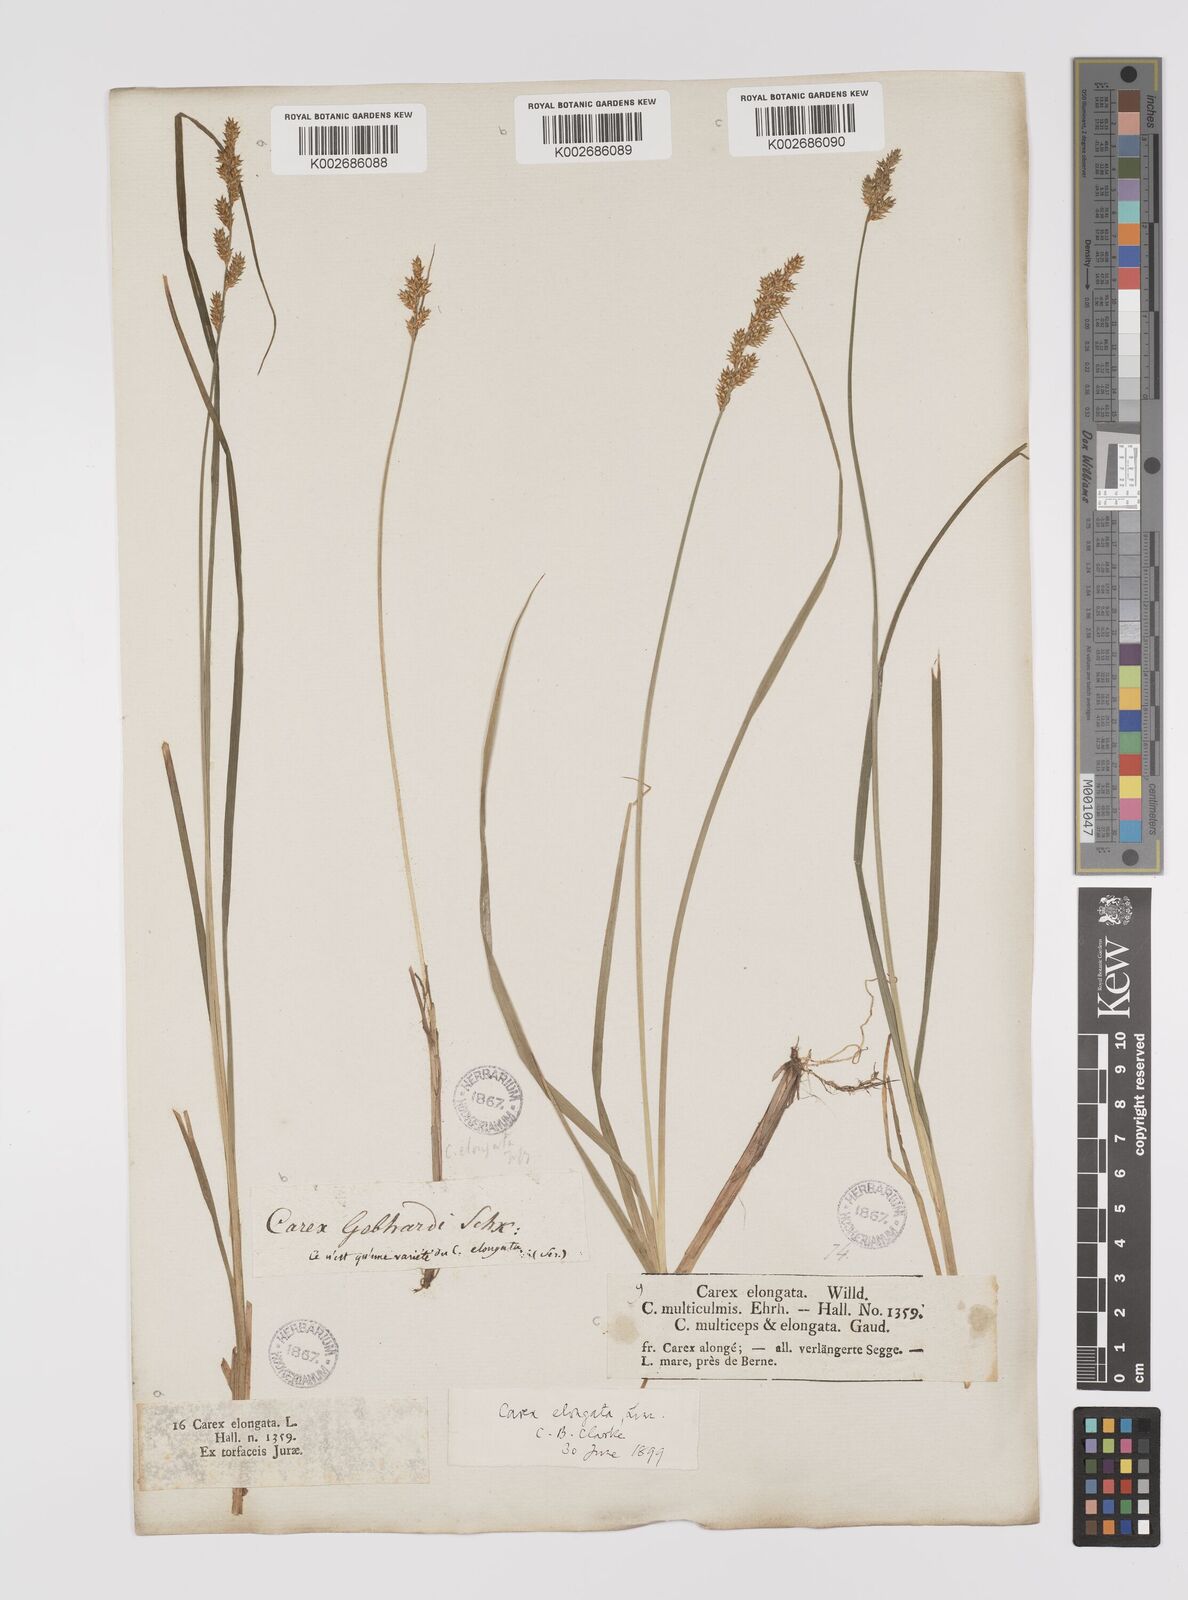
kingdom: Plantae
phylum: Tracheophyta
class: Liliopsida
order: Poales
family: Cyperaceae
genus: Carex
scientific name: Carex elongata
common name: Elongated sedge
